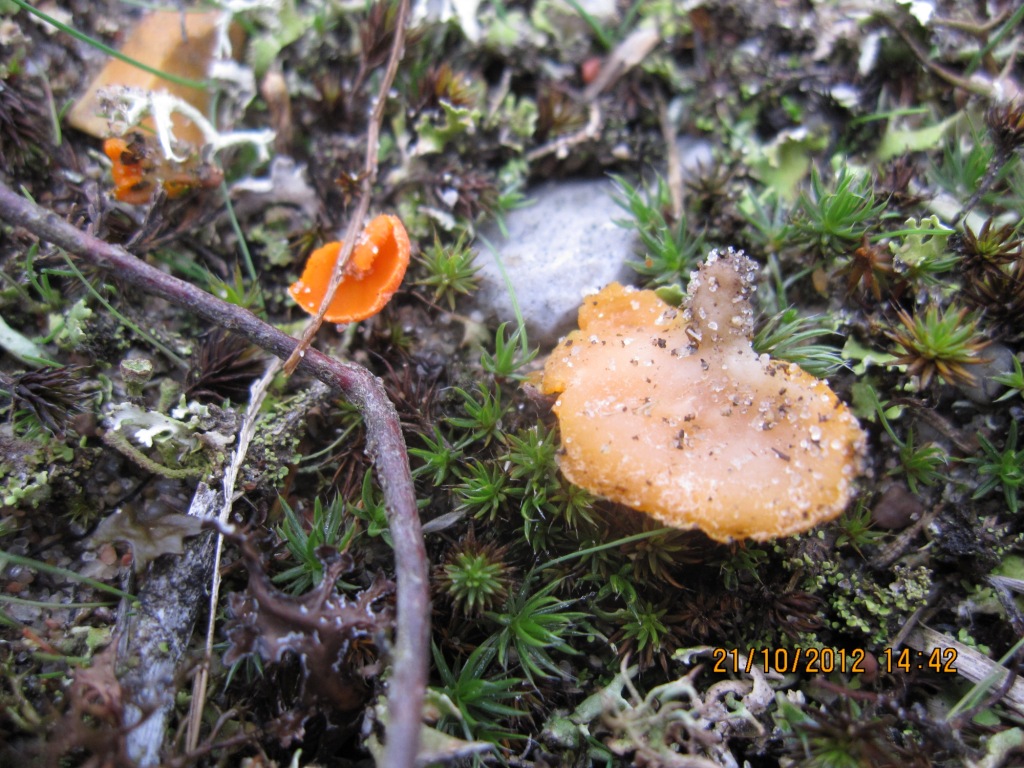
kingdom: Fungi
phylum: Ascomycota
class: Pezizomycetes
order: Pezizales
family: Pyronemataceae
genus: Neottiella
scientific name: Neottiella vivida
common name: sand-mosbæger
